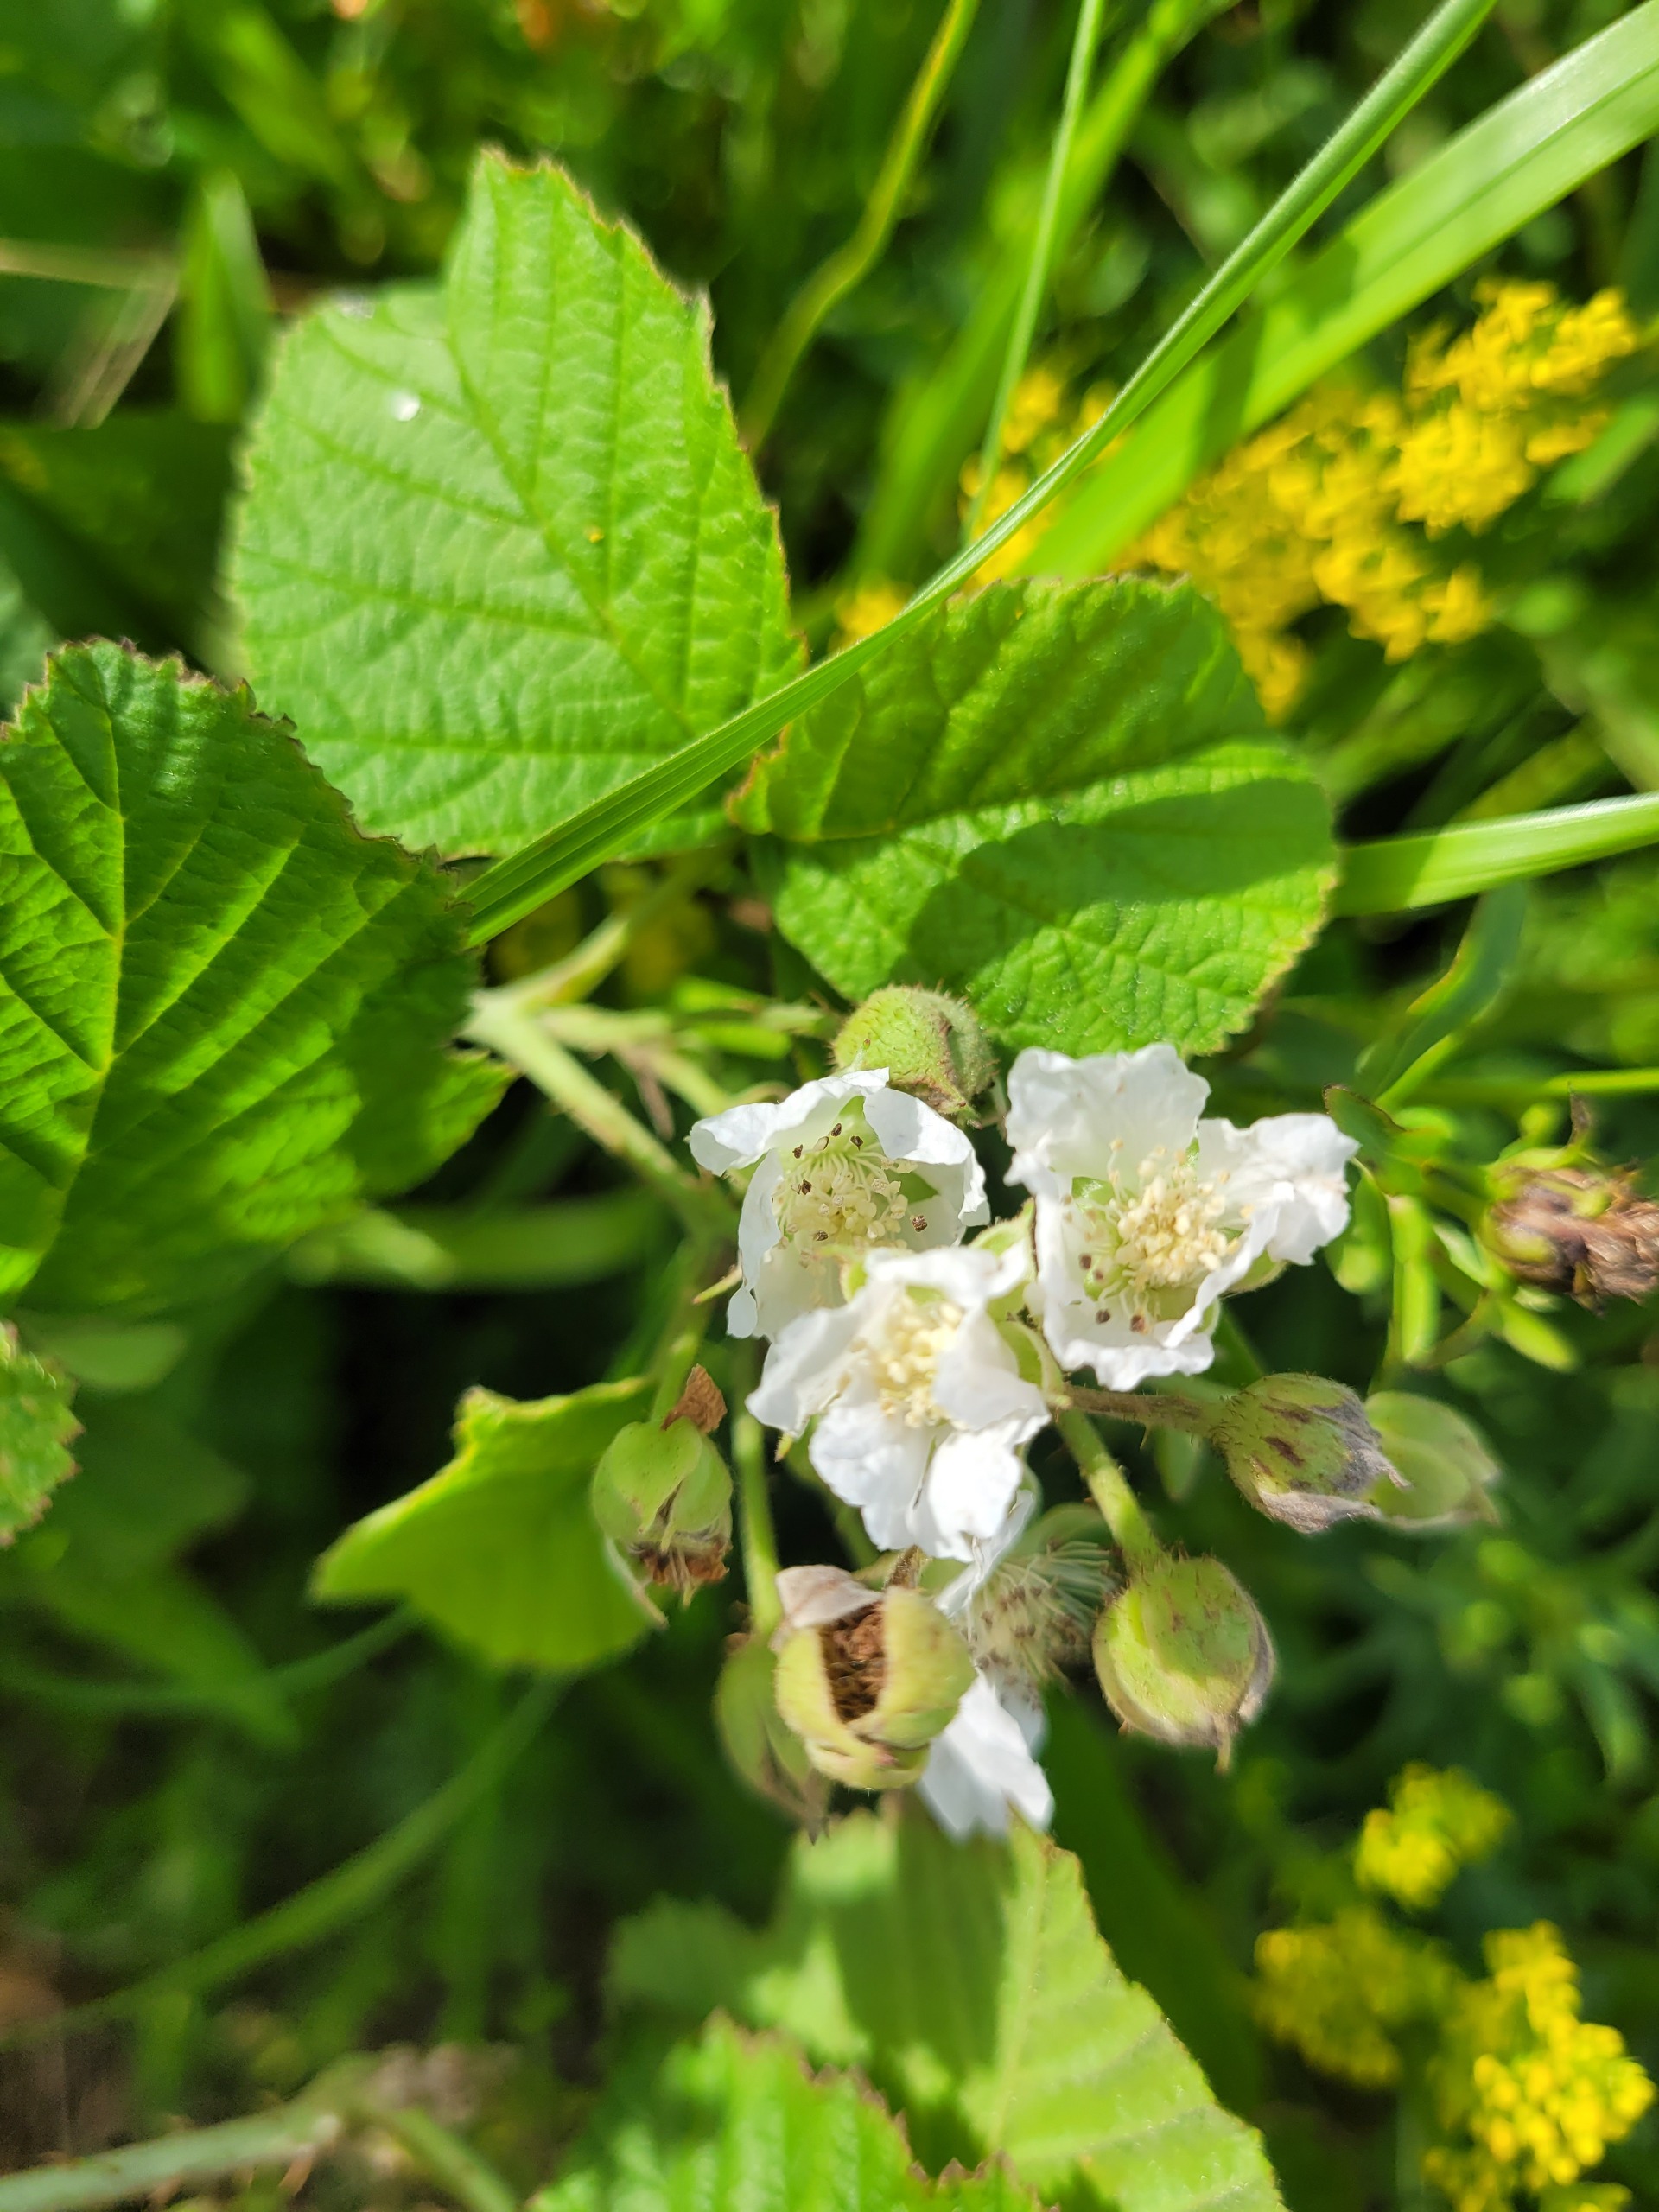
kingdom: Plantae
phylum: Tracheophyta
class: Magnoliopsida
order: Rosales
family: Rosaceae
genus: Rubus
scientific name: Rubus caesius
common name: Korbær
